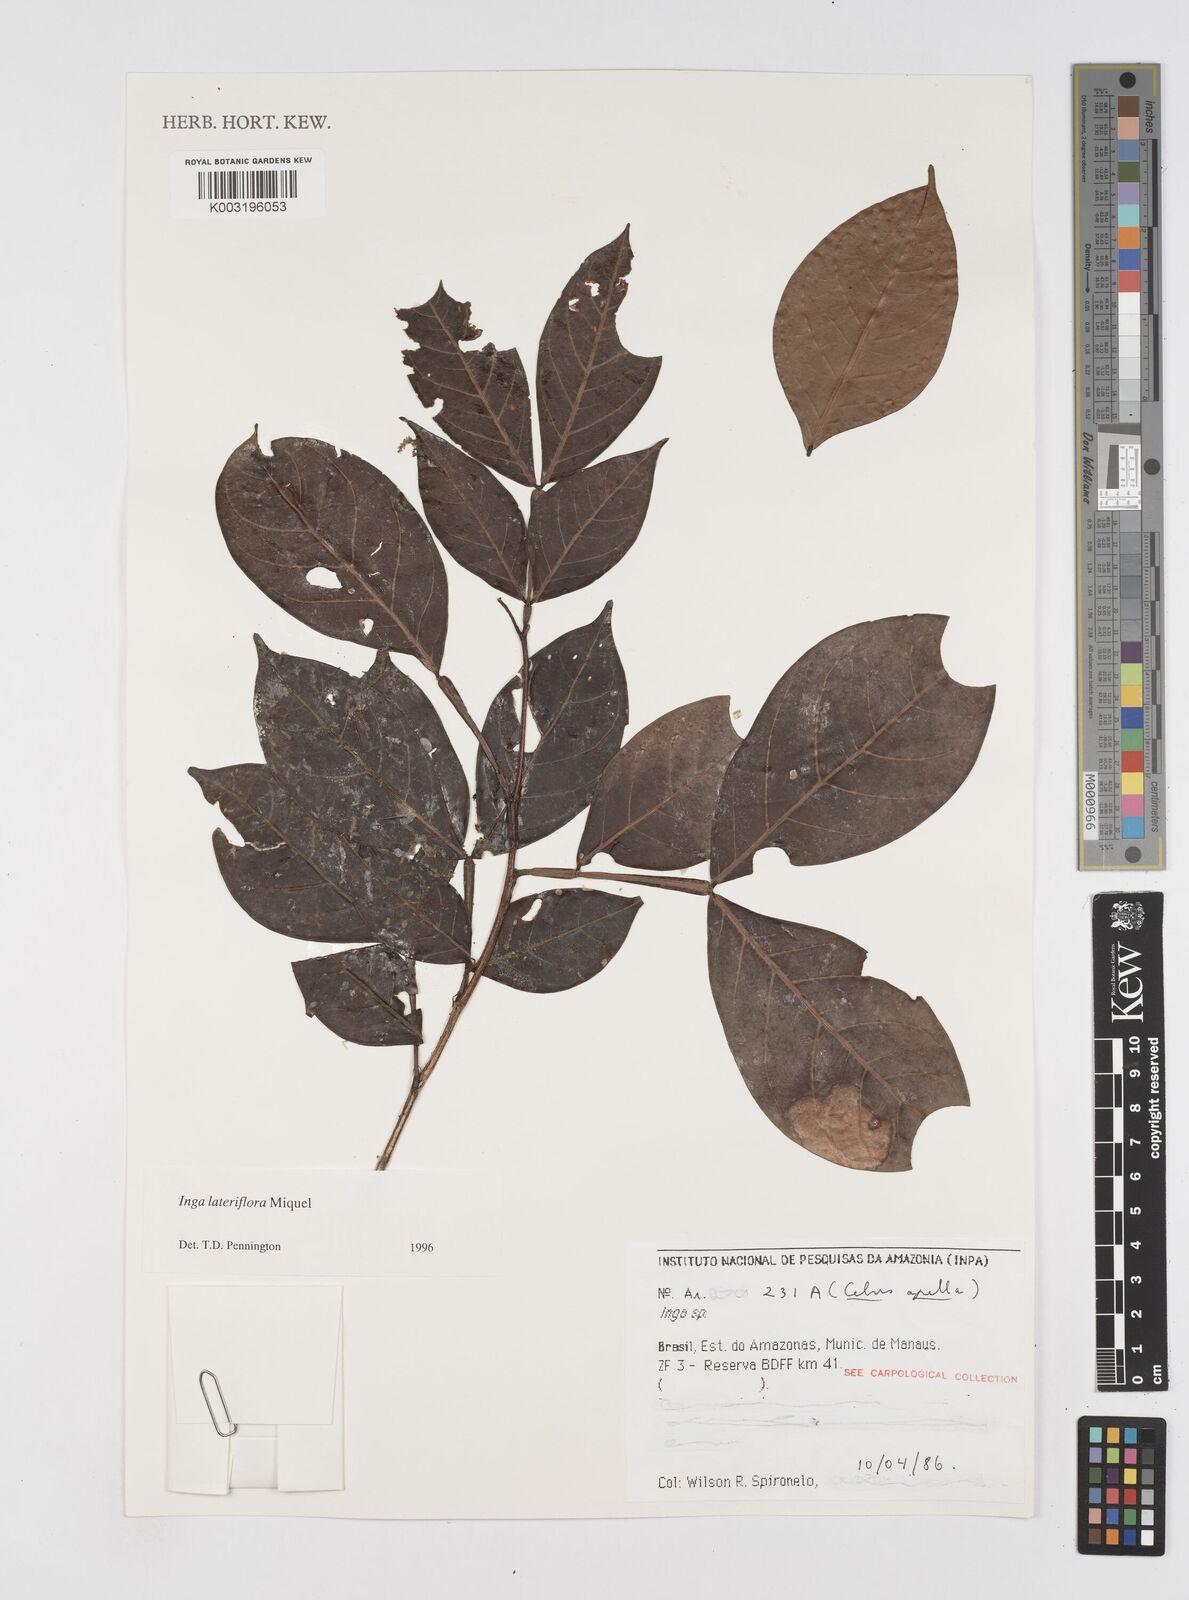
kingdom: Plantae
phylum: Tracheophyta
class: Magnoliopsida
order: Fabales
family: Fabaceae
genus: Inga
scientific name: Inga lateriflora
